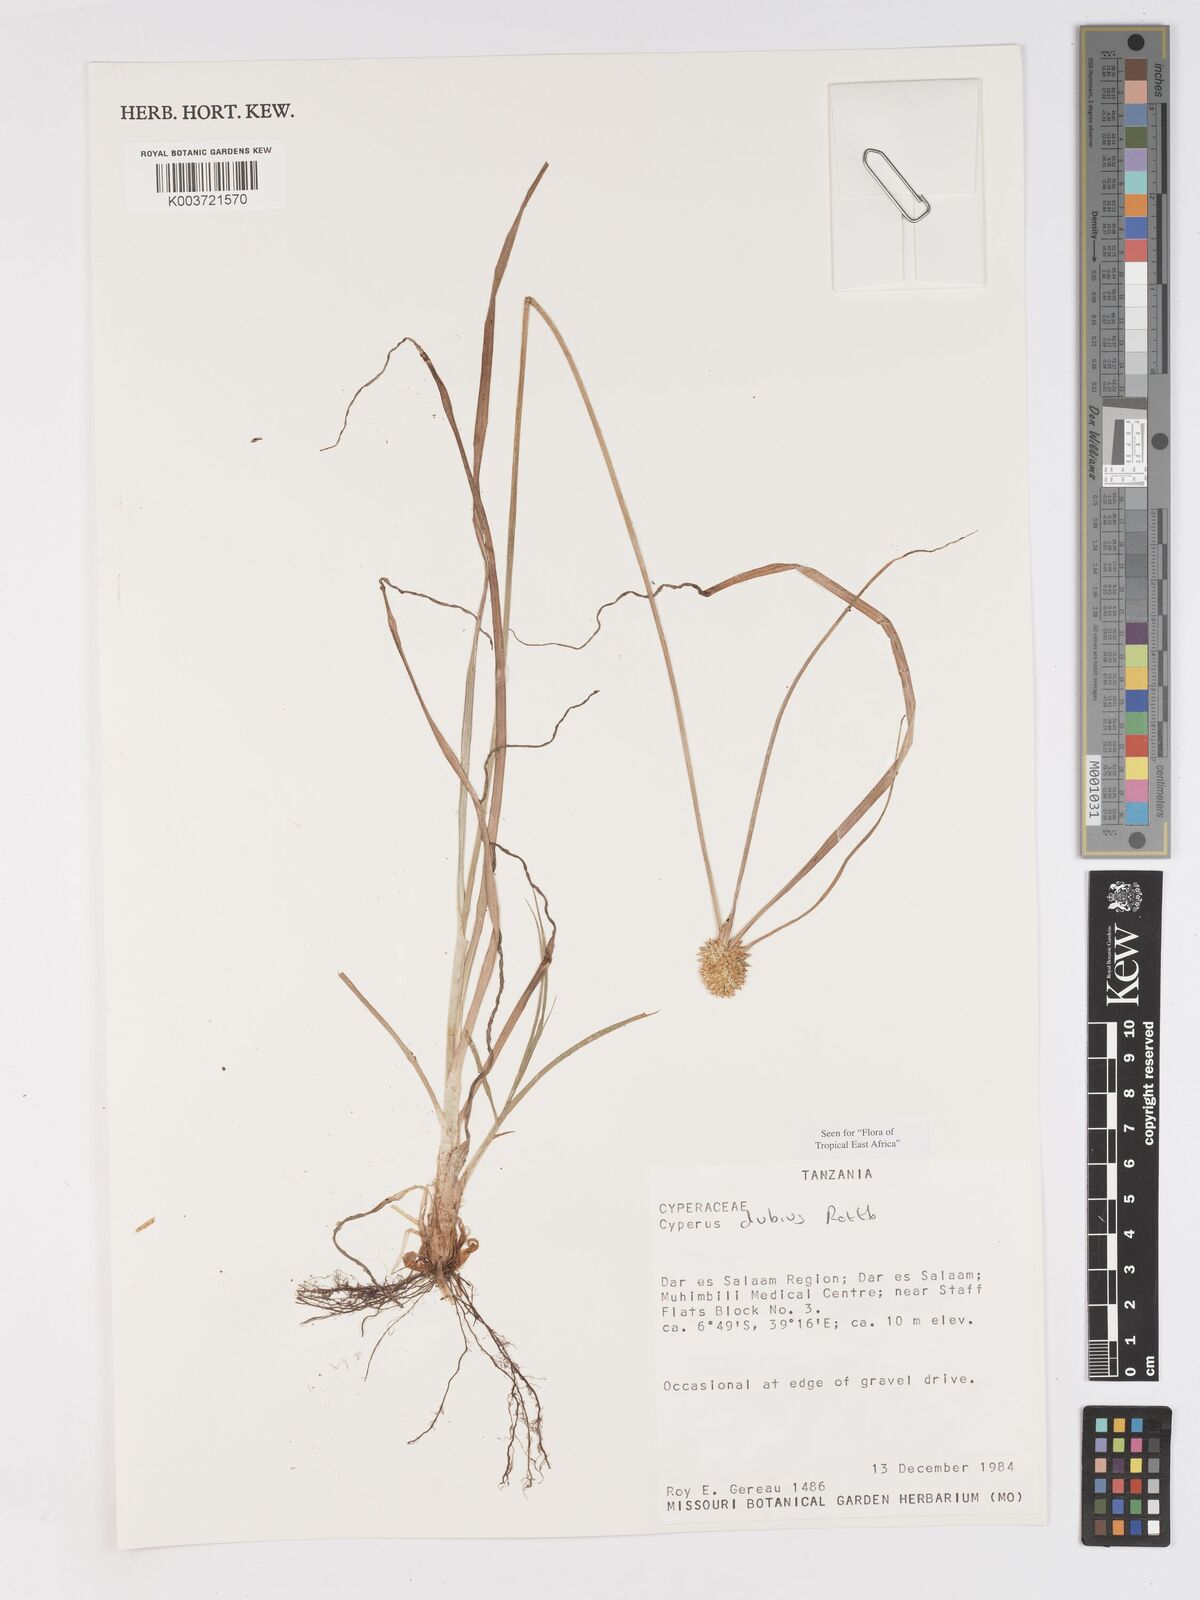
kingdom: Plantae
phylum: Tracheophyta
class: Liliopsida
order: Poales
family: Cyperaceae
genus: Cyperus
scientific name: Cyperus dubius
